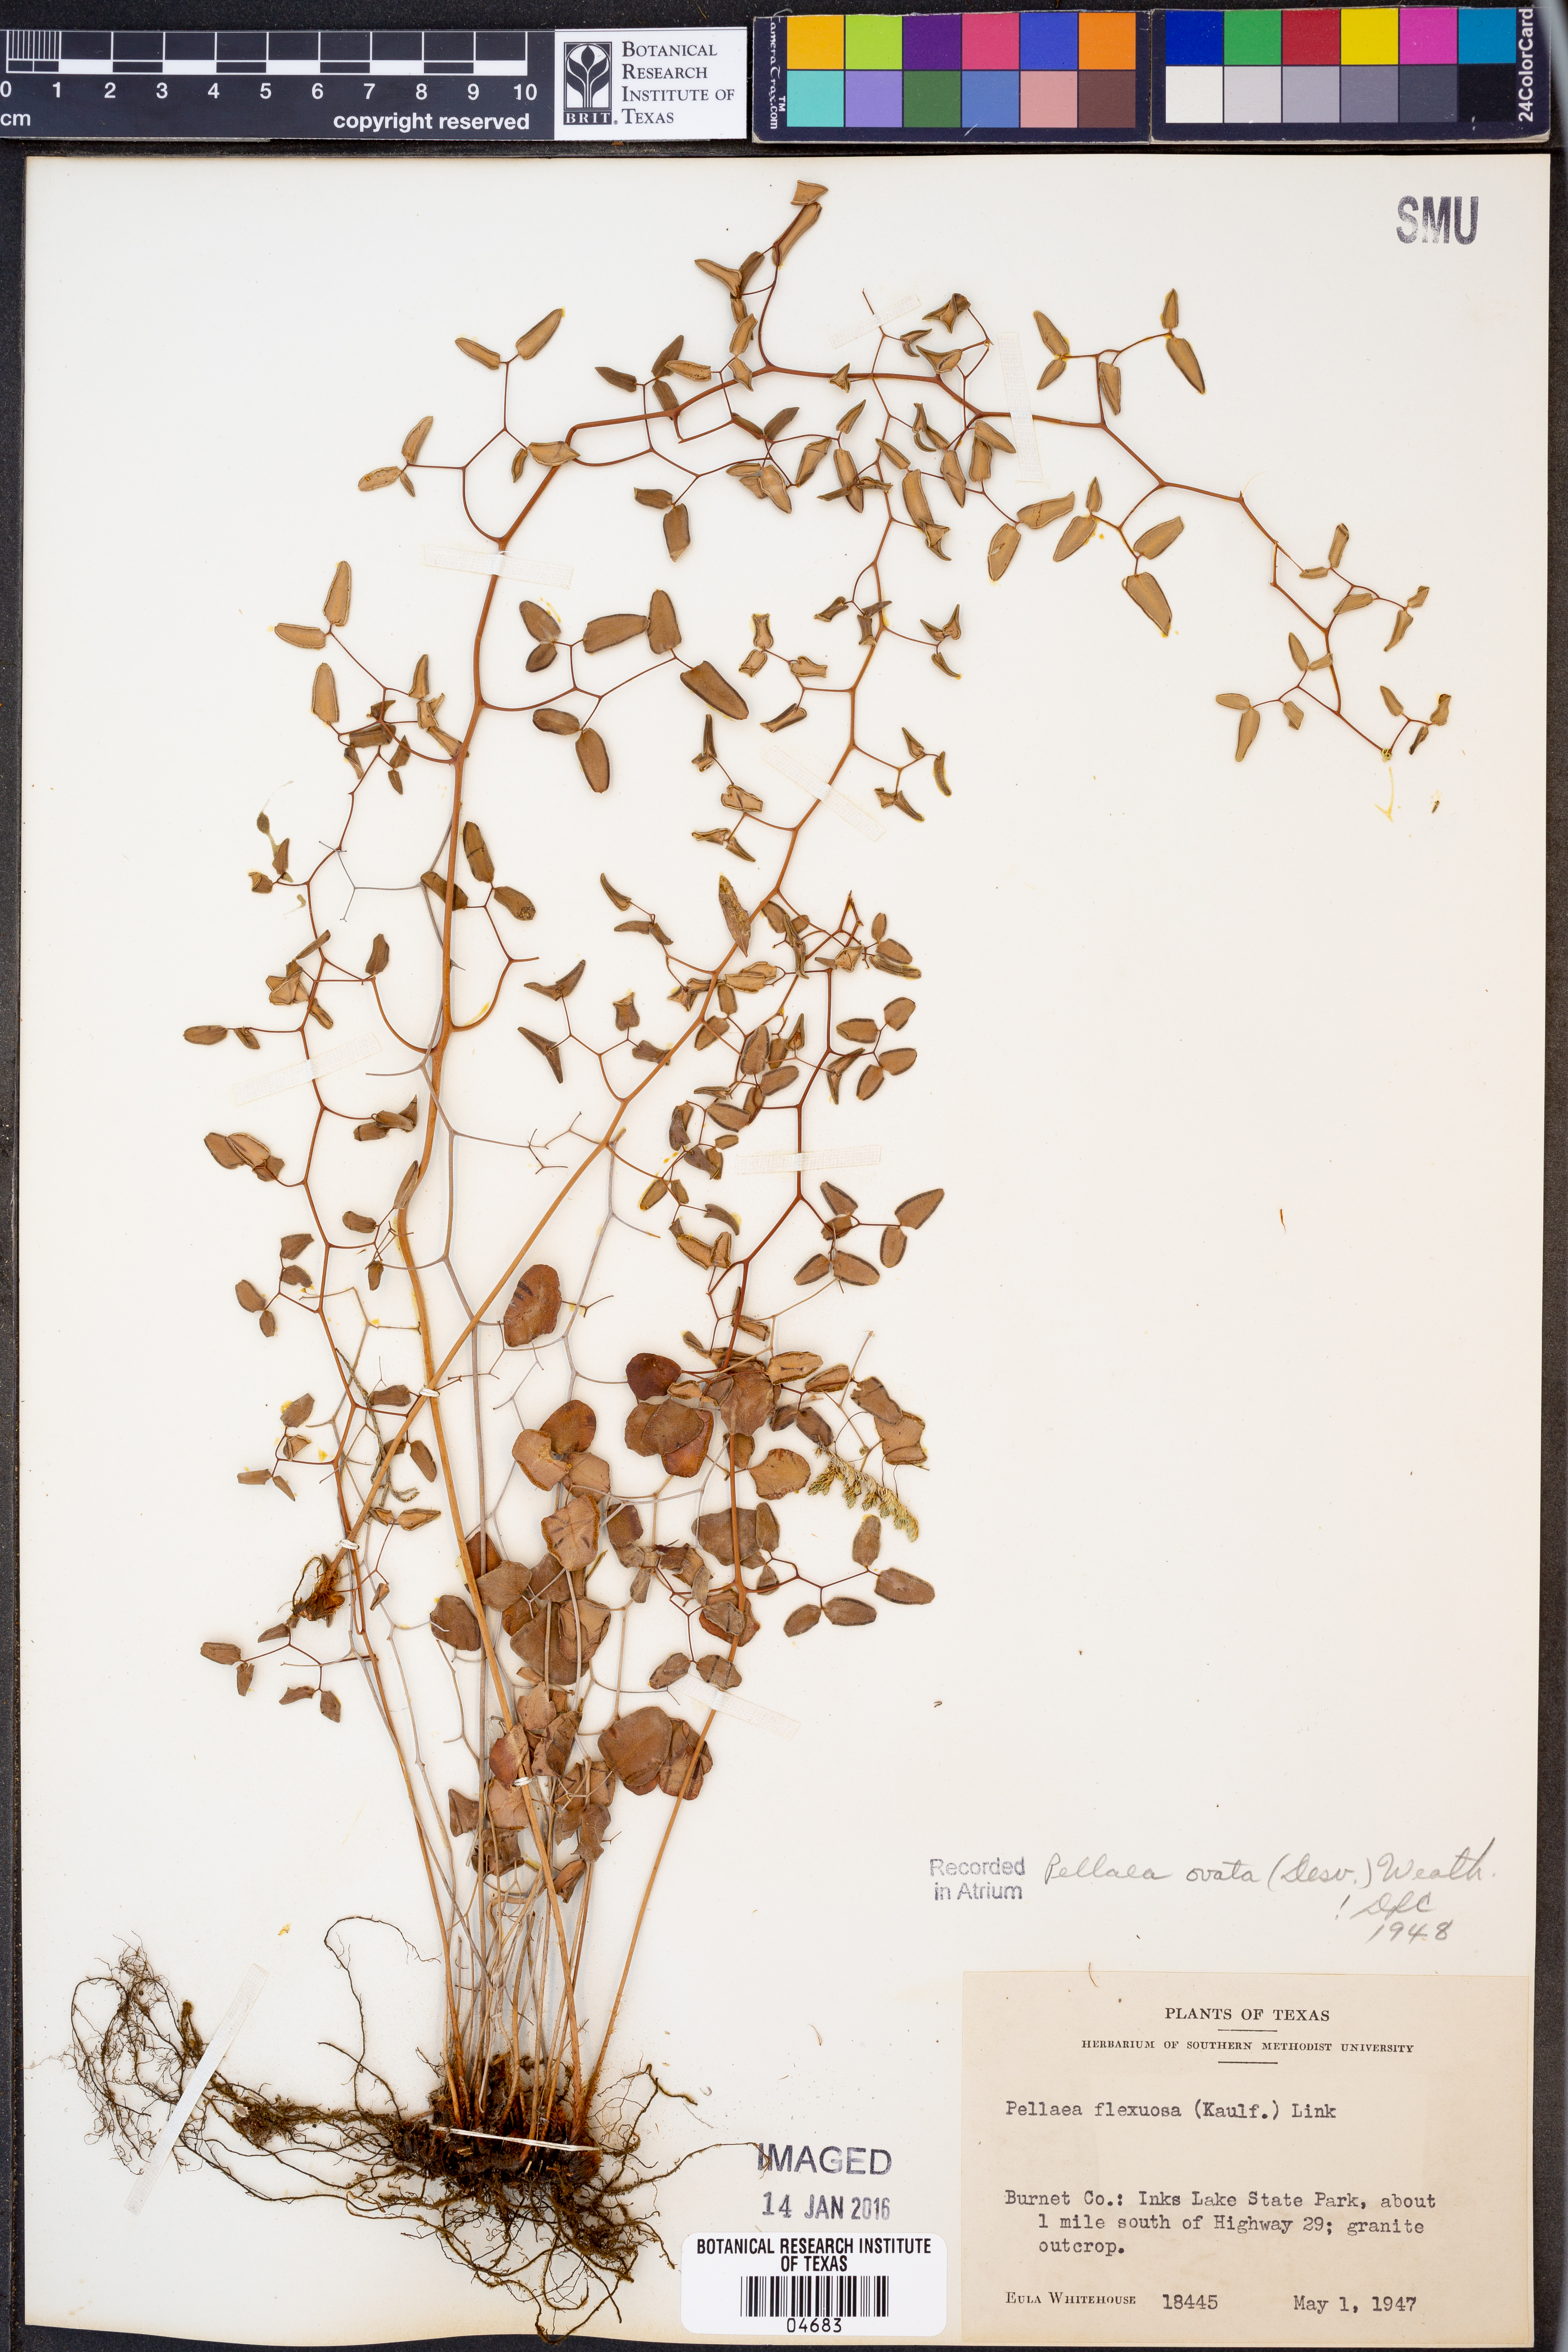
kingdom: Plantae
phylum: Tracheophyta
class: Polypodiopsida
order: Polypodiales
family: Pteridaceae
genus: Pellaea
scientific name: Pellaea ovata
